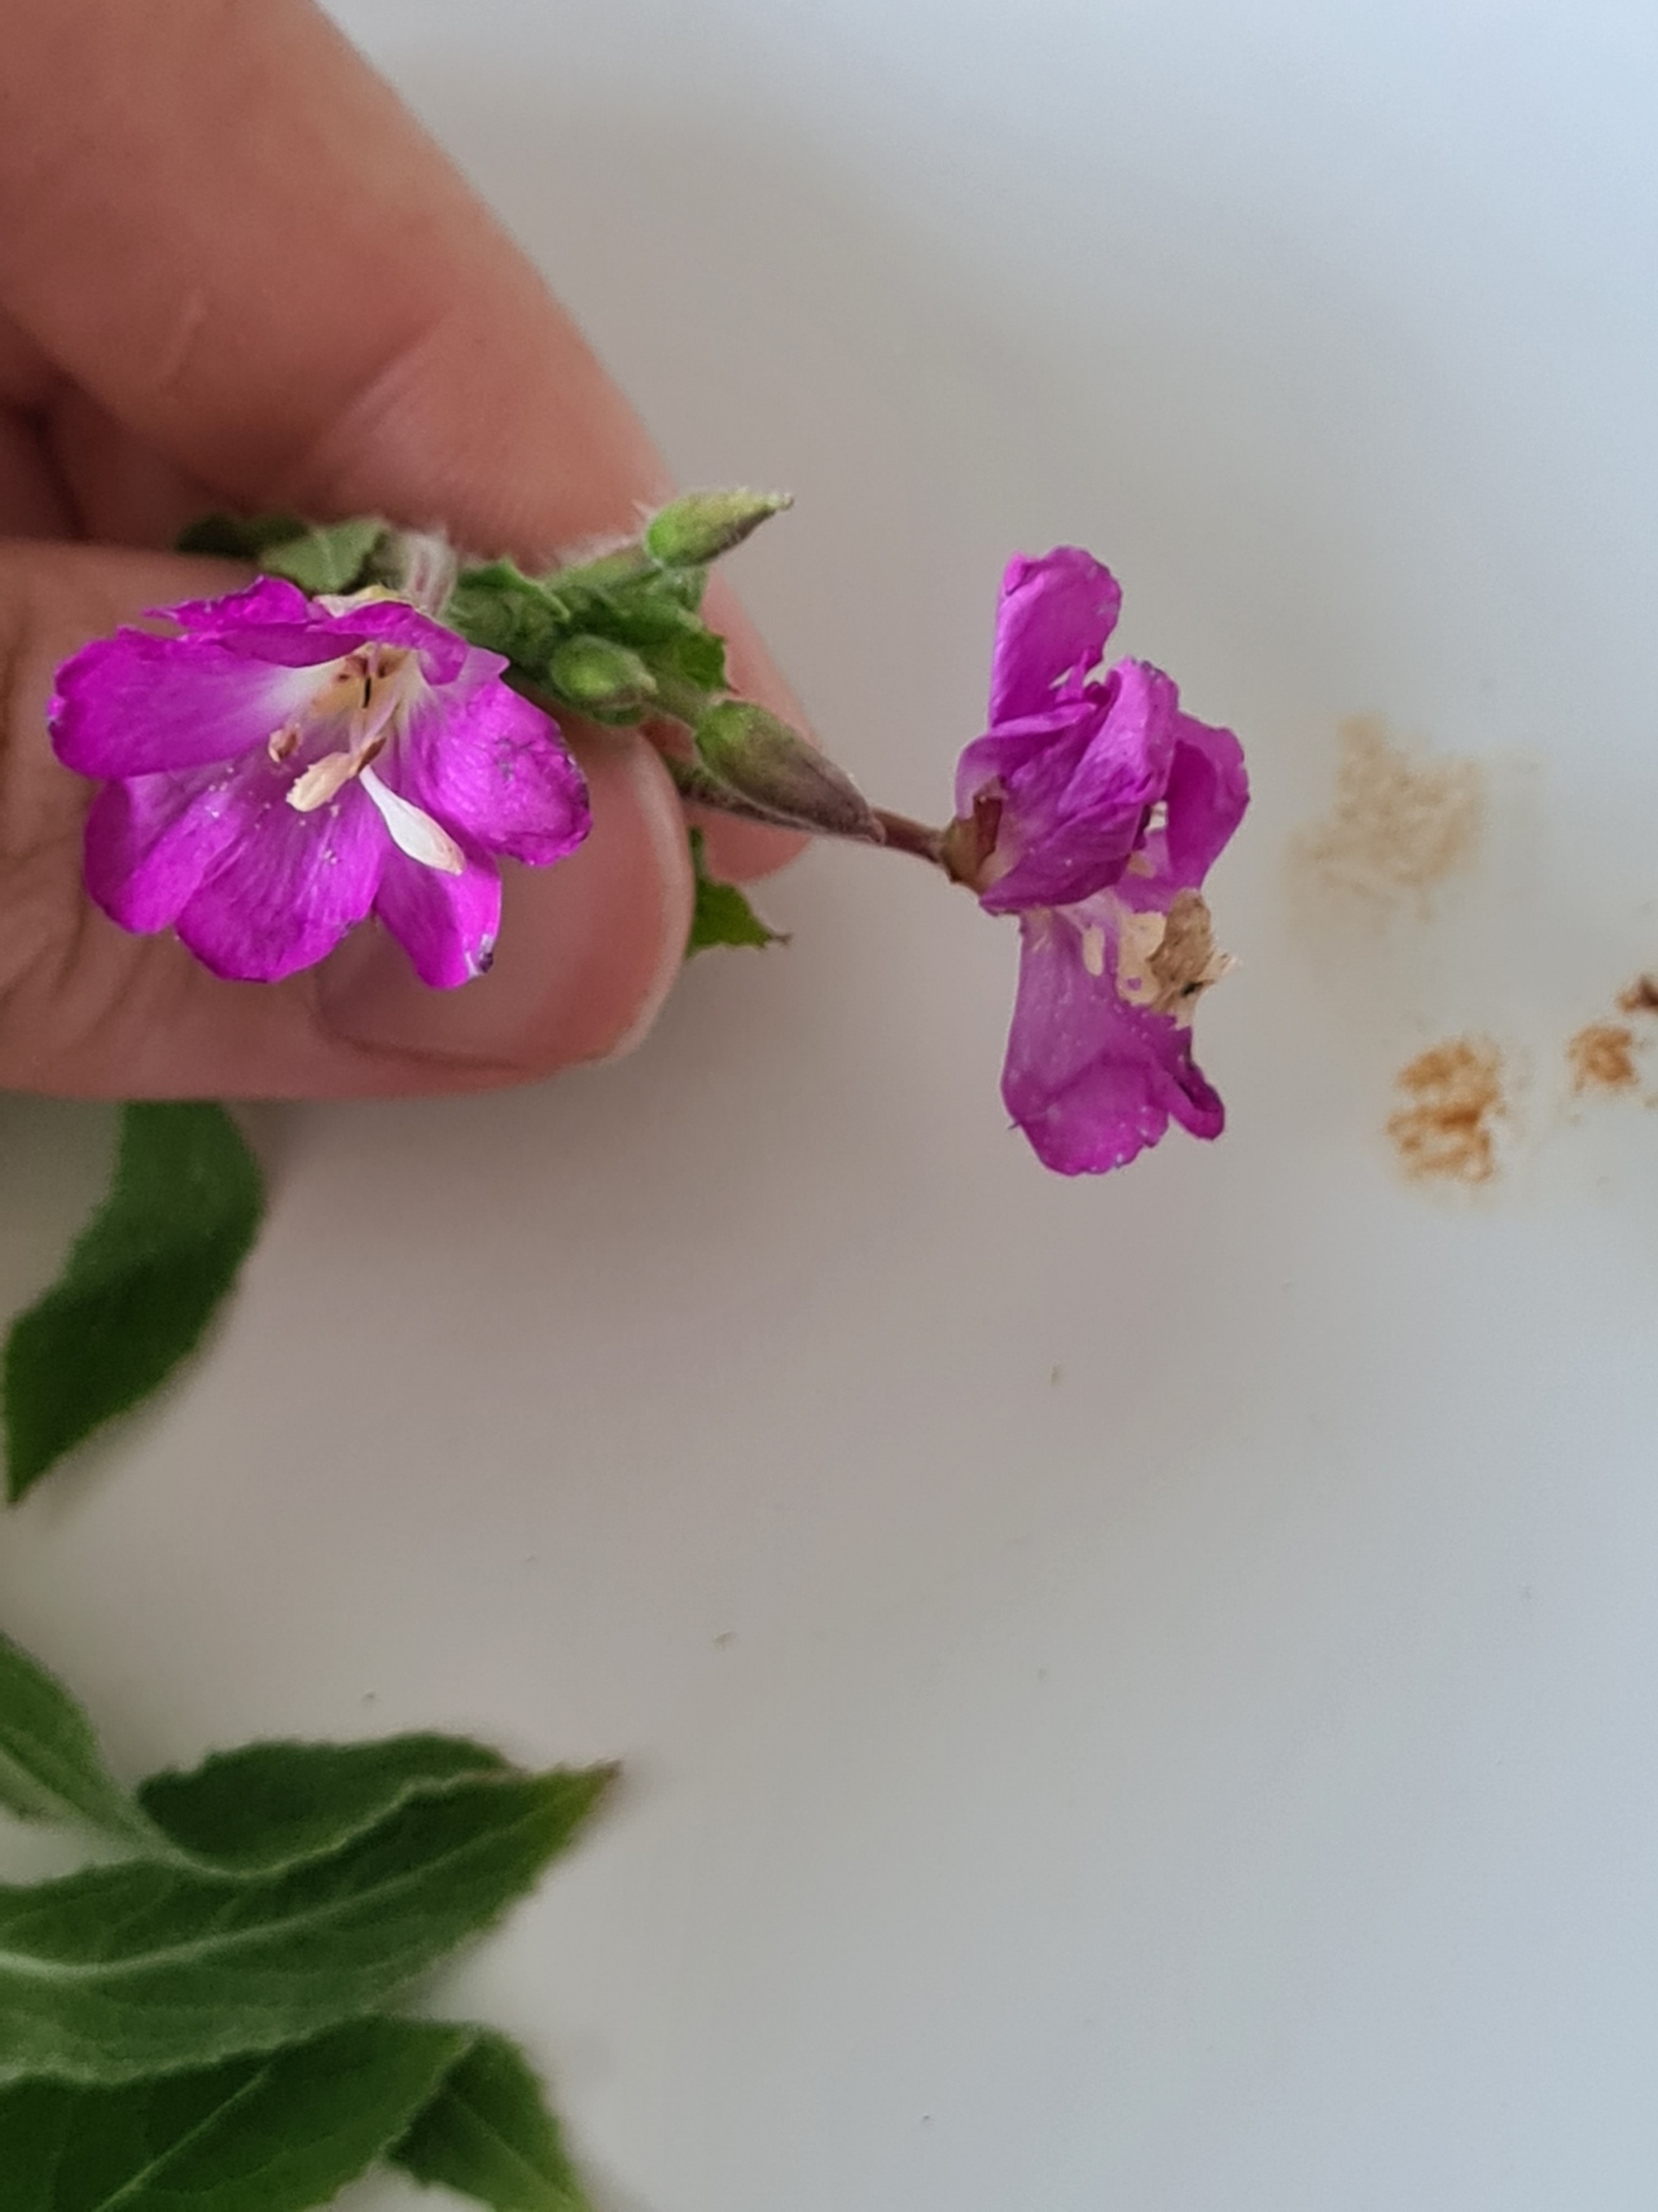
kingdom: Plantae
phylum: Tracheophyta
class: Magnoliopsida
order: Myrtales
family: Onagraceae
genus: Epilobium
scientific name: Epilobium hirsutum
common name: Lådden dueurt
